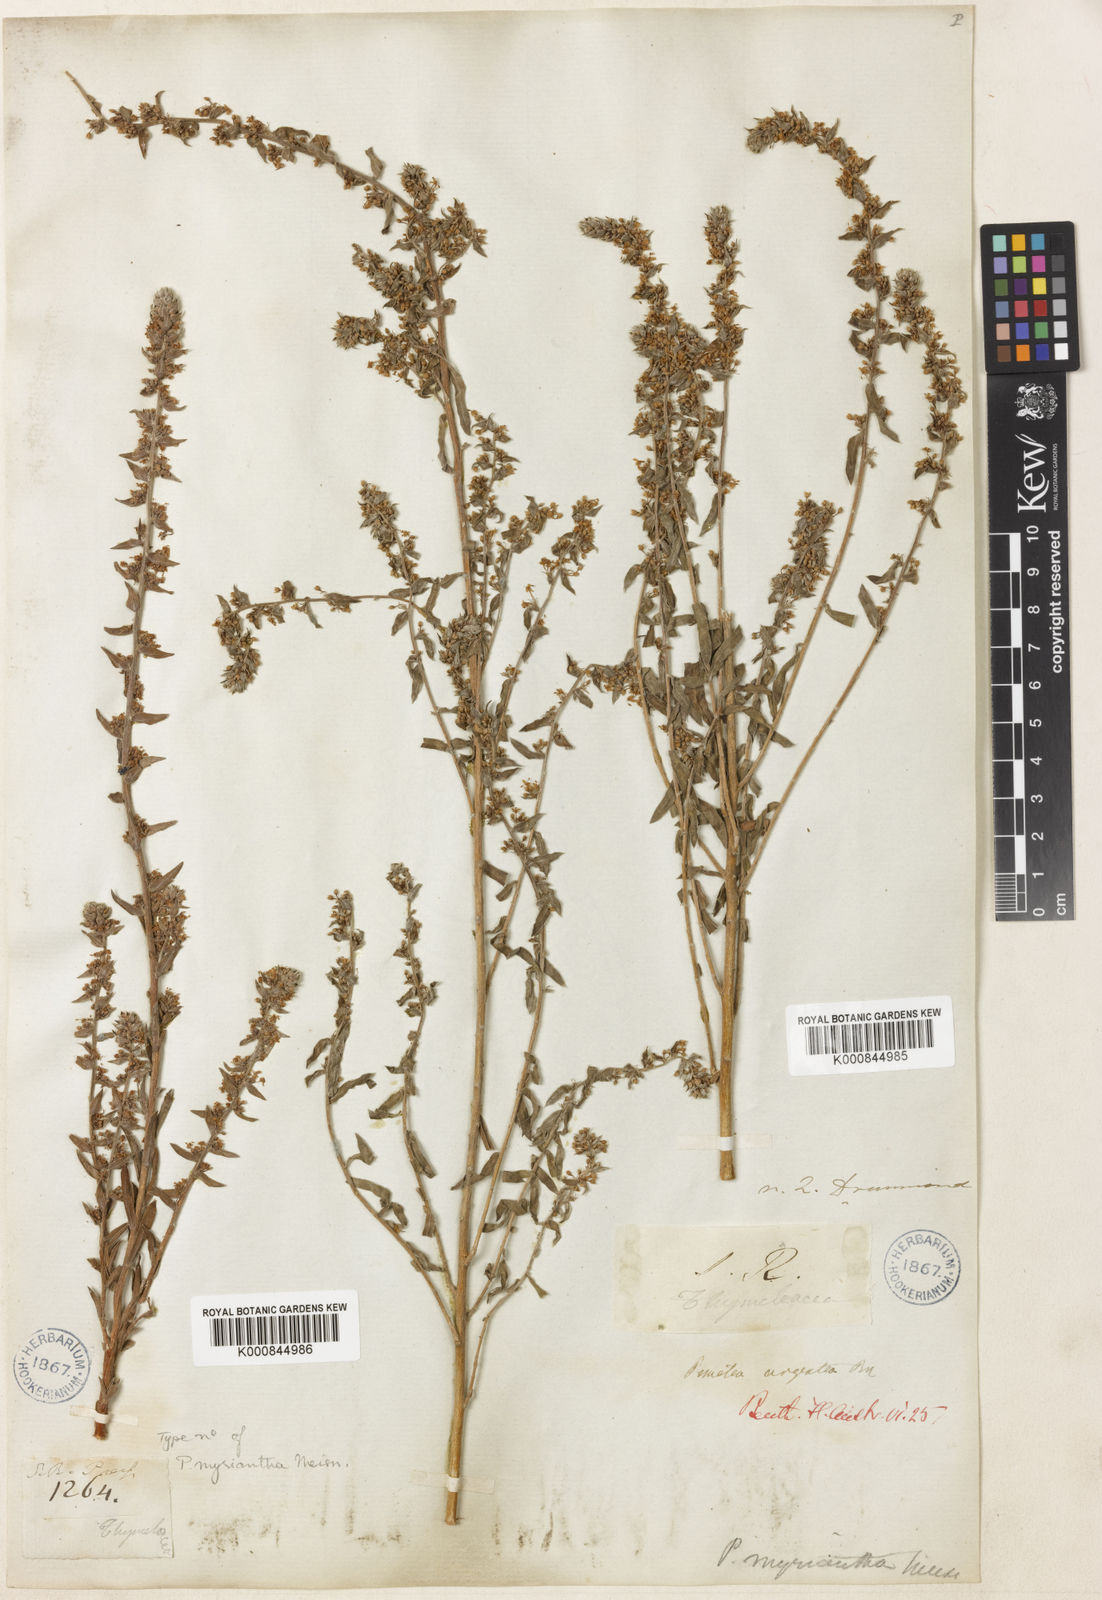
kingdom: Plantae
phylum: Tracheophyta
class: Magnoliopsida
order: Malvales
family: Thymelaeaceae
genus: Pimelea
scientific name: Pimelea argentea
